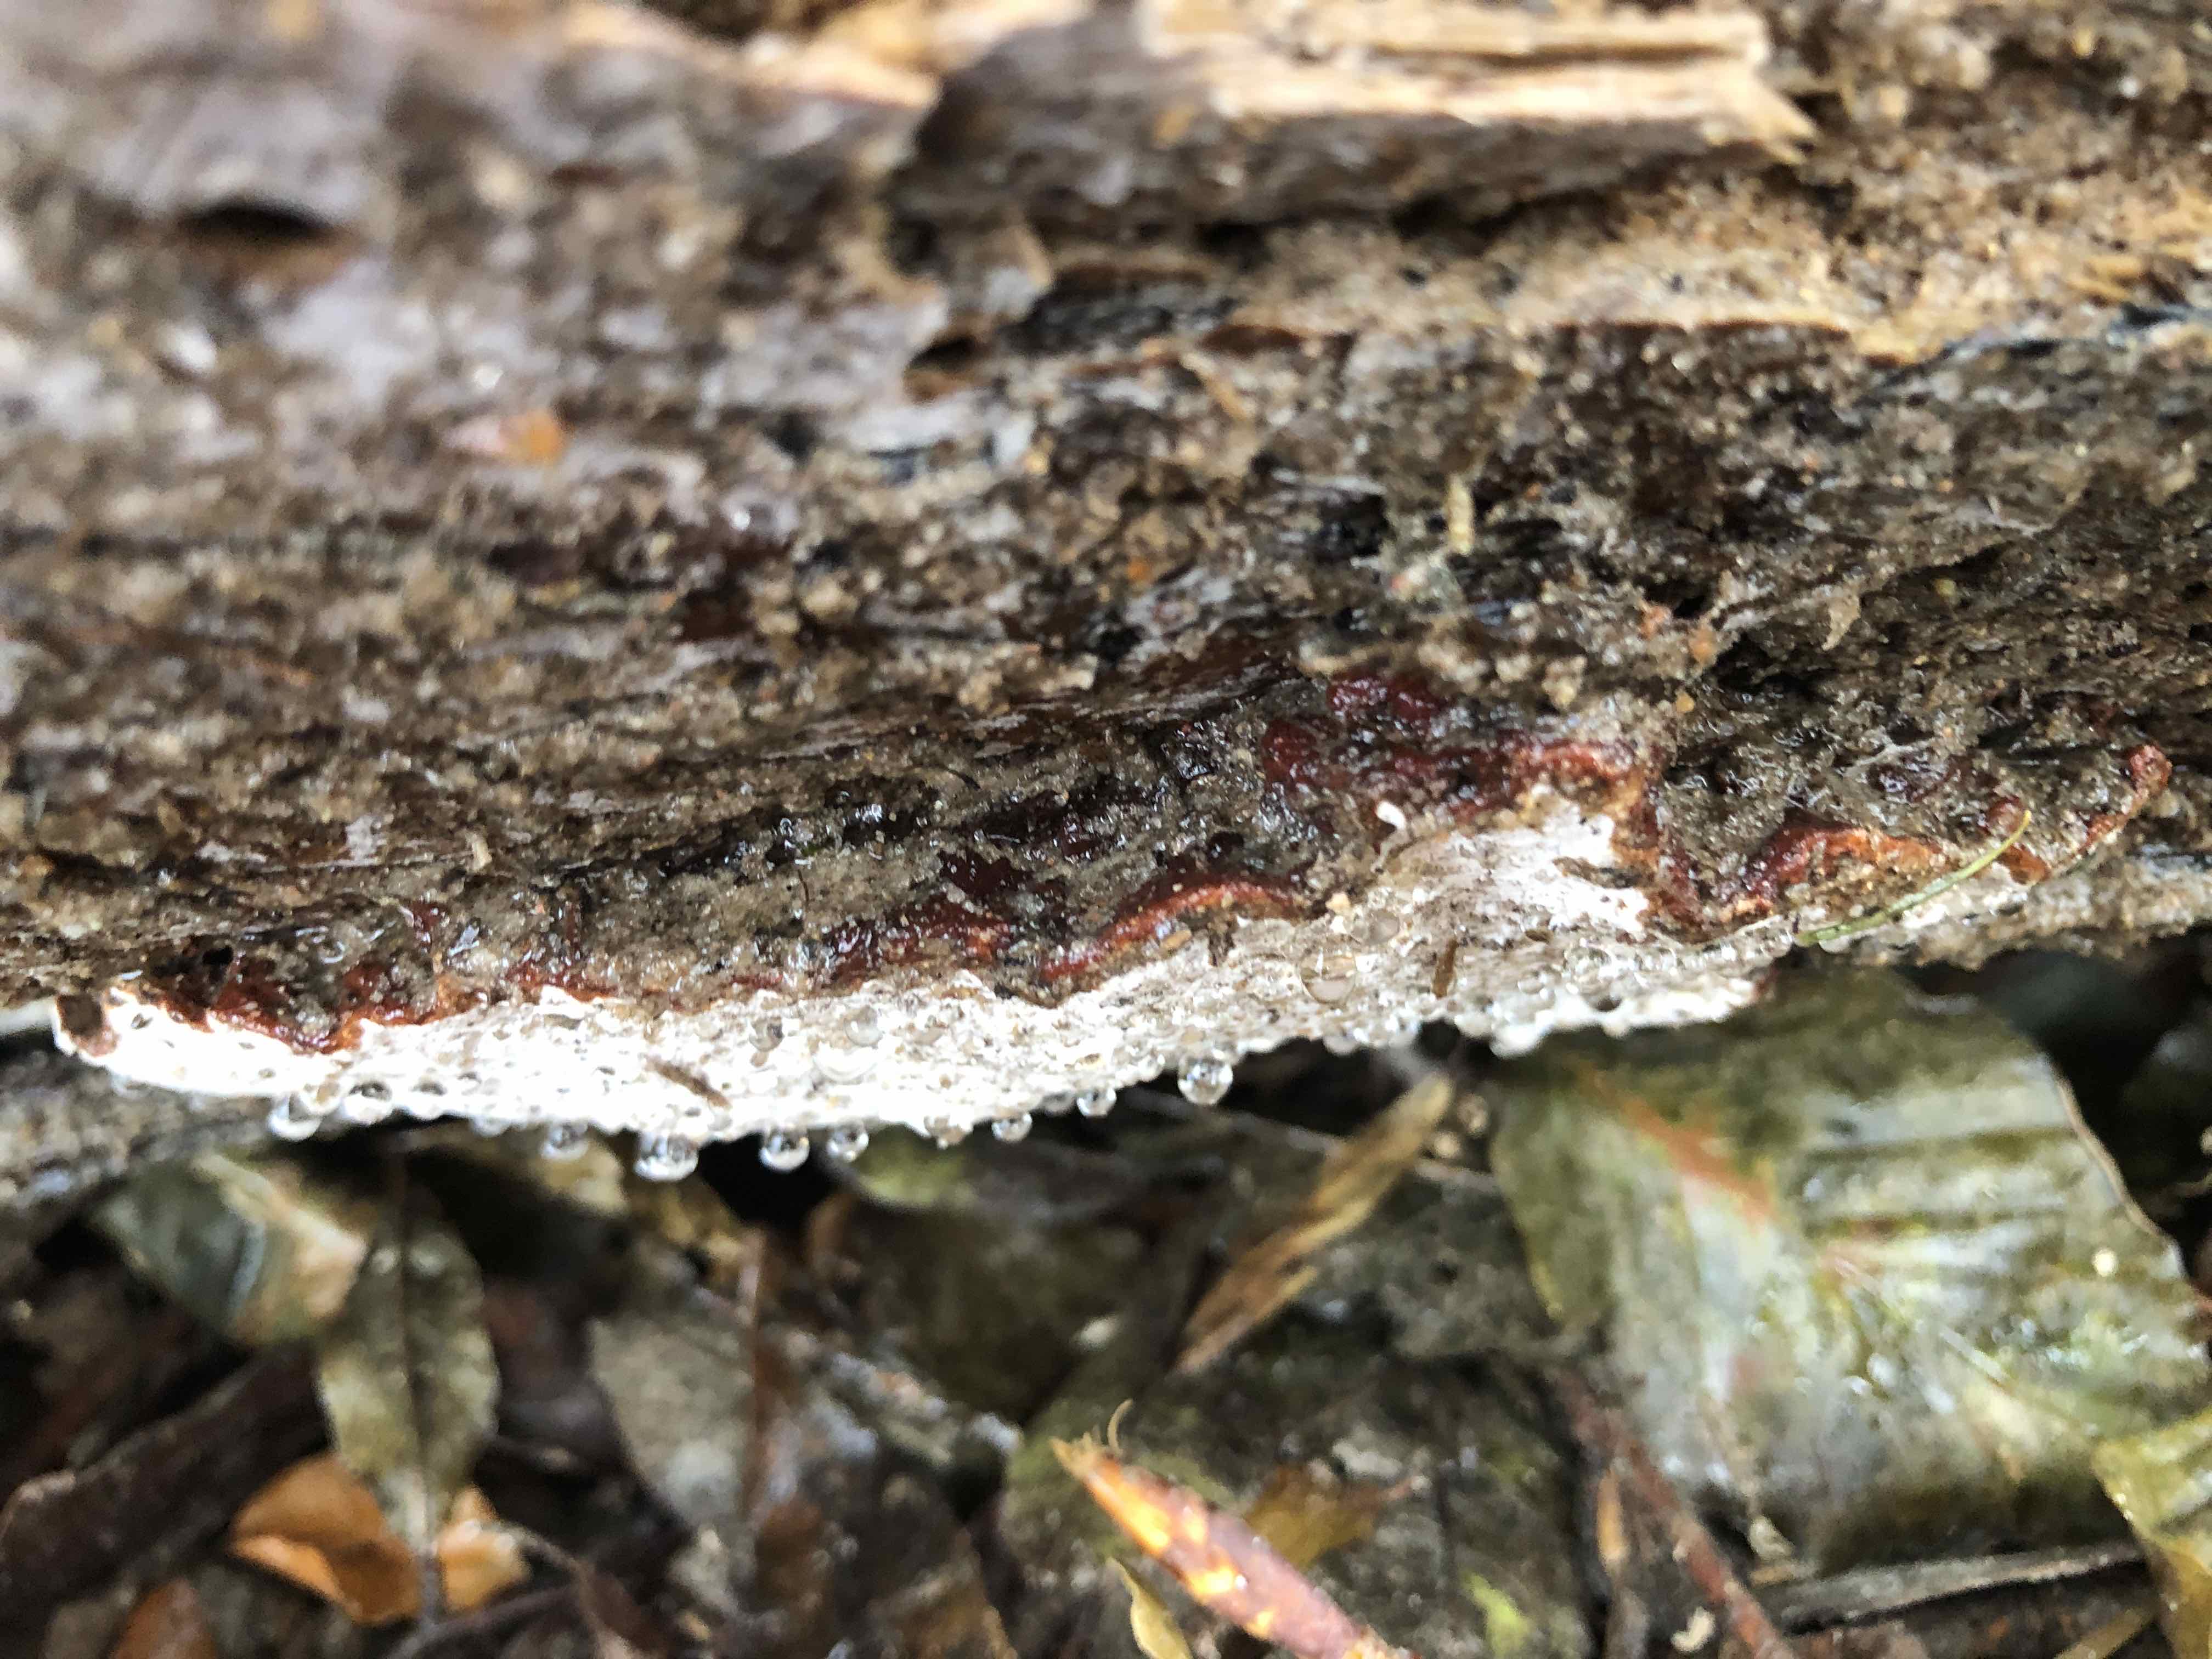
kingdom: Fungi
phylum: Basidiomycota
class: Agaricomycetes
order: Russulales
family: Bondarzewiaceae
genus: Heterobasidion
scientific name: Heterobasidion annosum
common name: almindelig rodfordærver
